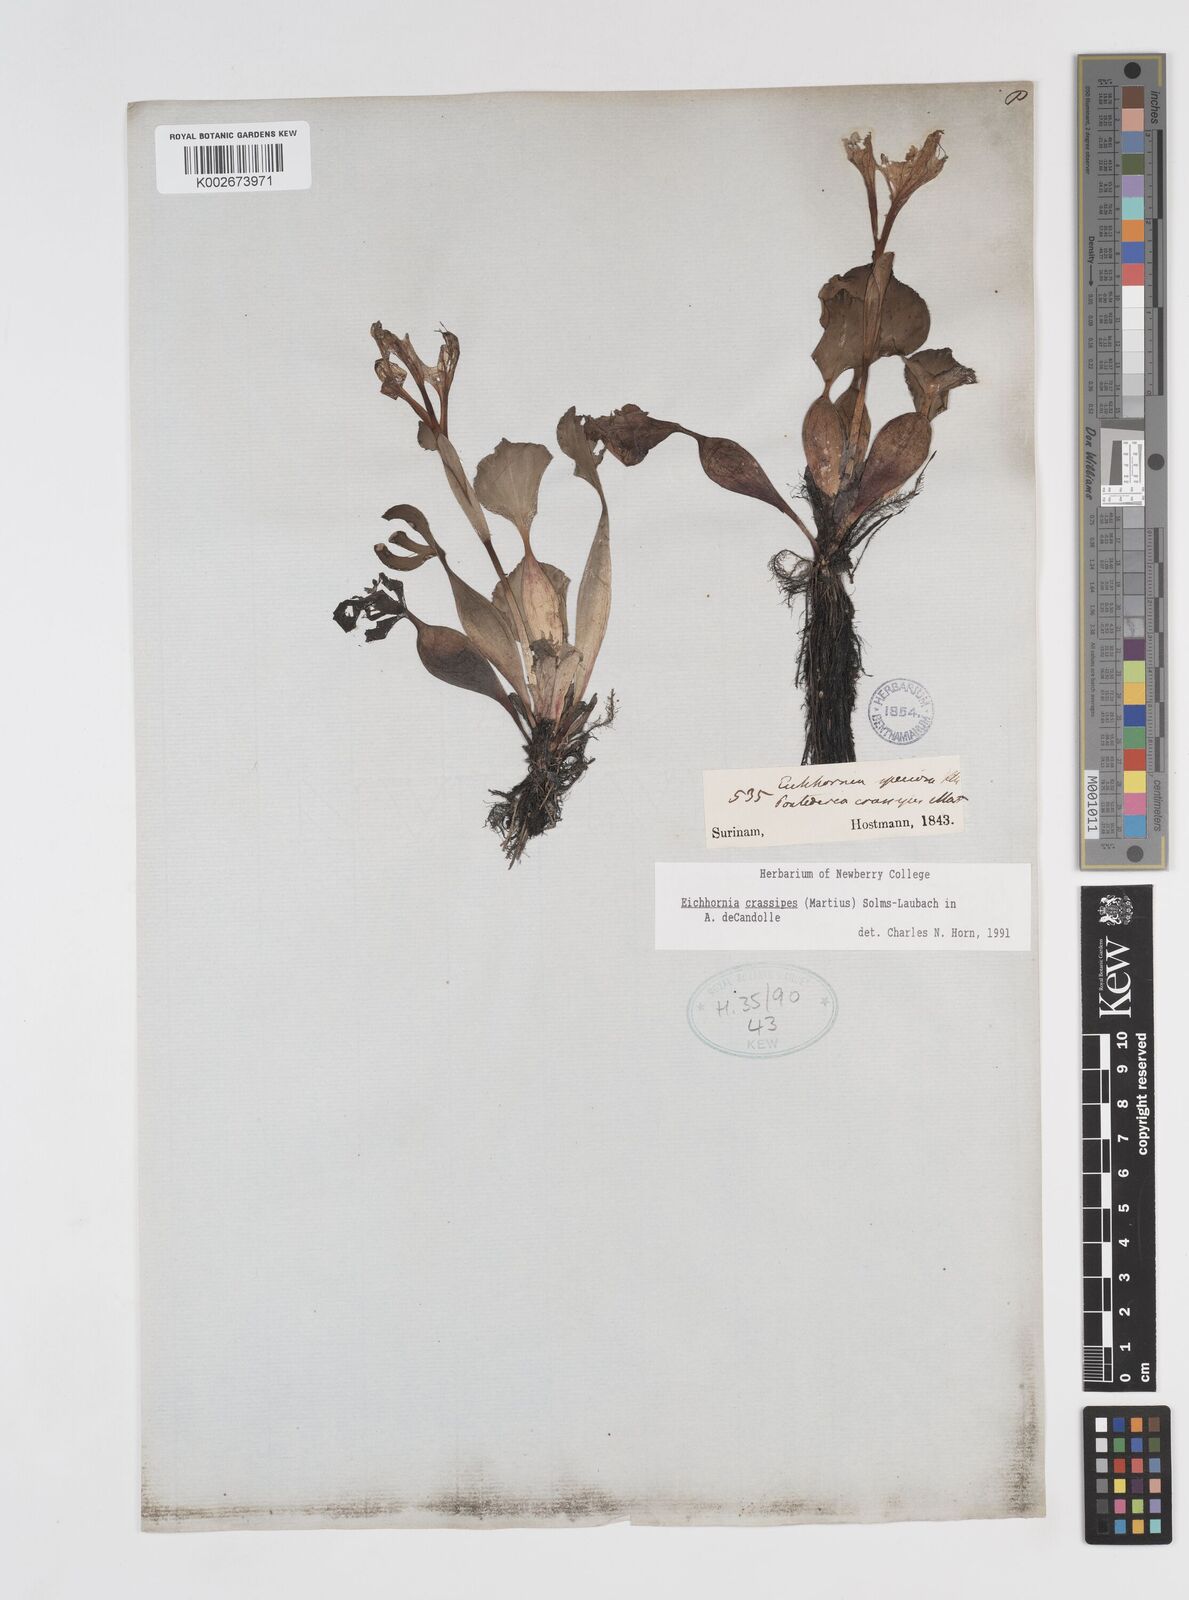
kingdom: Plantae
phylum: Tracheophyta
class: Liliopsida
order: Commelinales
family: Pontederiaceae
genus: Pontederia
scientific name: Pontederia crassipes
